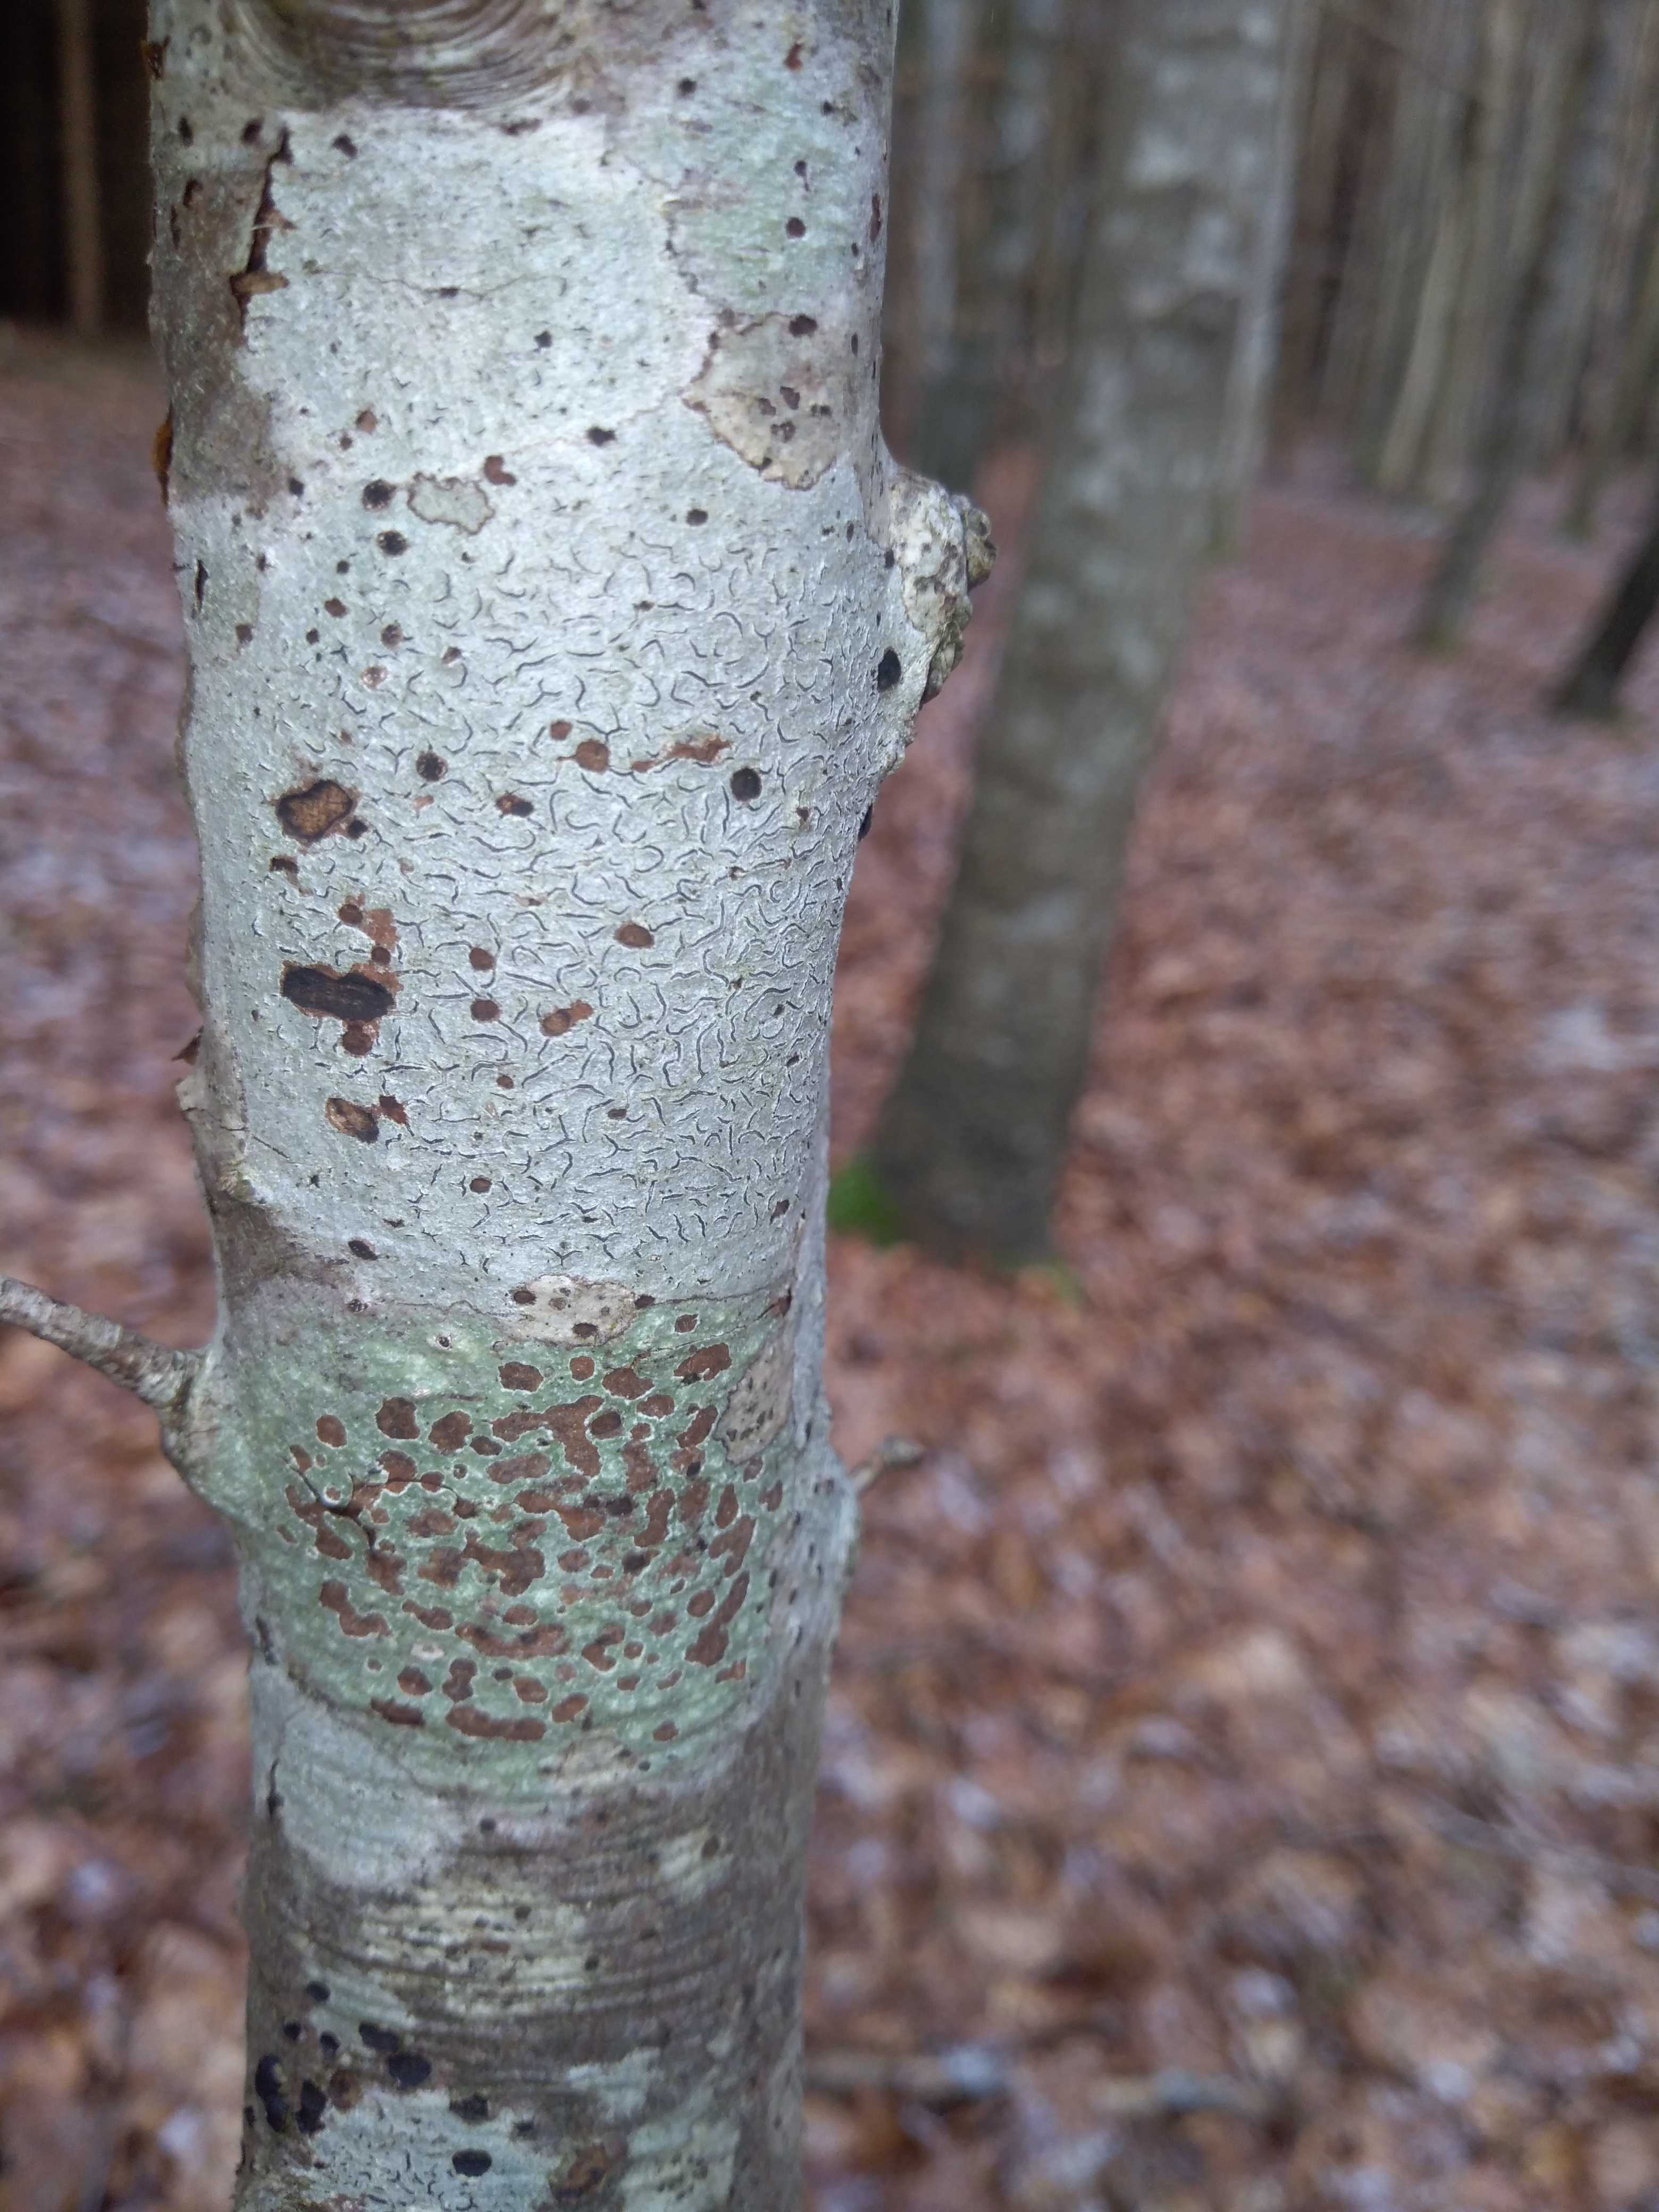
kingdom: Fungi
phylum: Ascomycota
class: Lecanoromycetes
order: Ostropales
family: Graphidaceae
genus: Graphis
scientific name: Graphis scripta
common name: almindelig skriftlav
